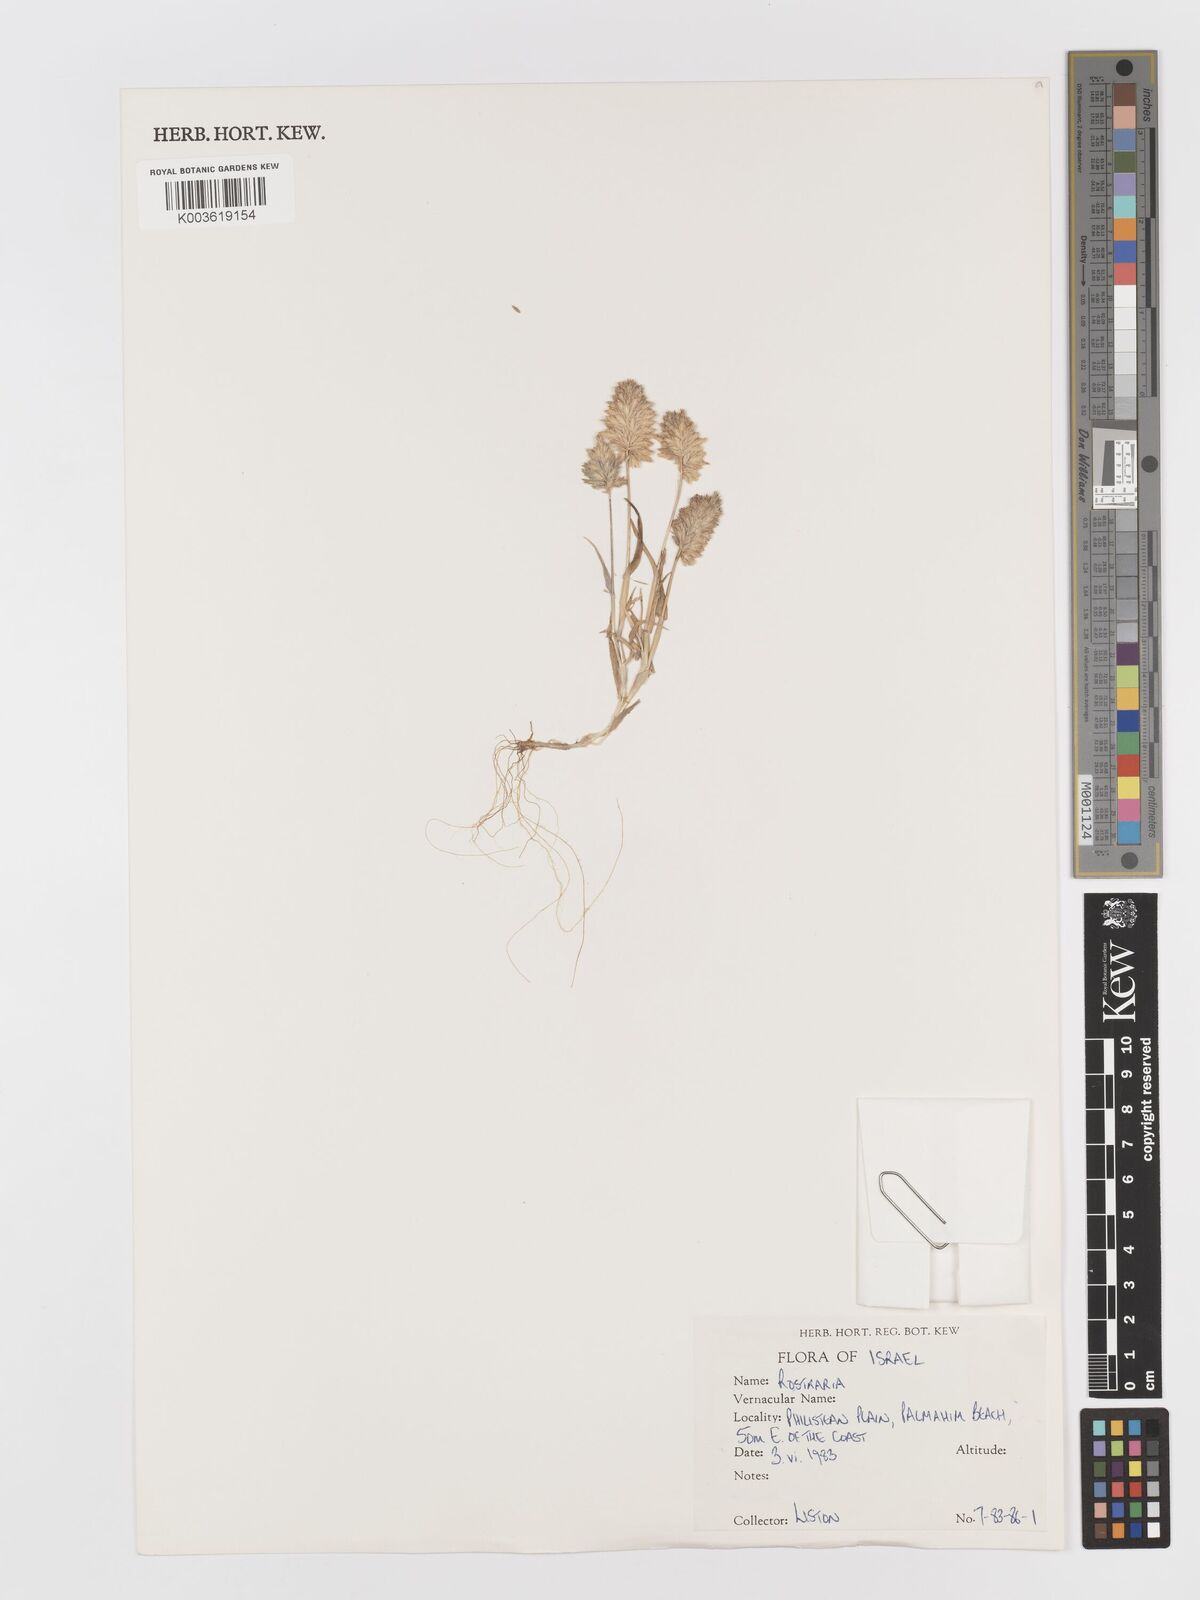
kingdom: Plantae
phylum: Tracheophyta
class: Liliopsida
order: Poales
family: Poaceae
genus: Rostraria
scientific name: Rostraria
